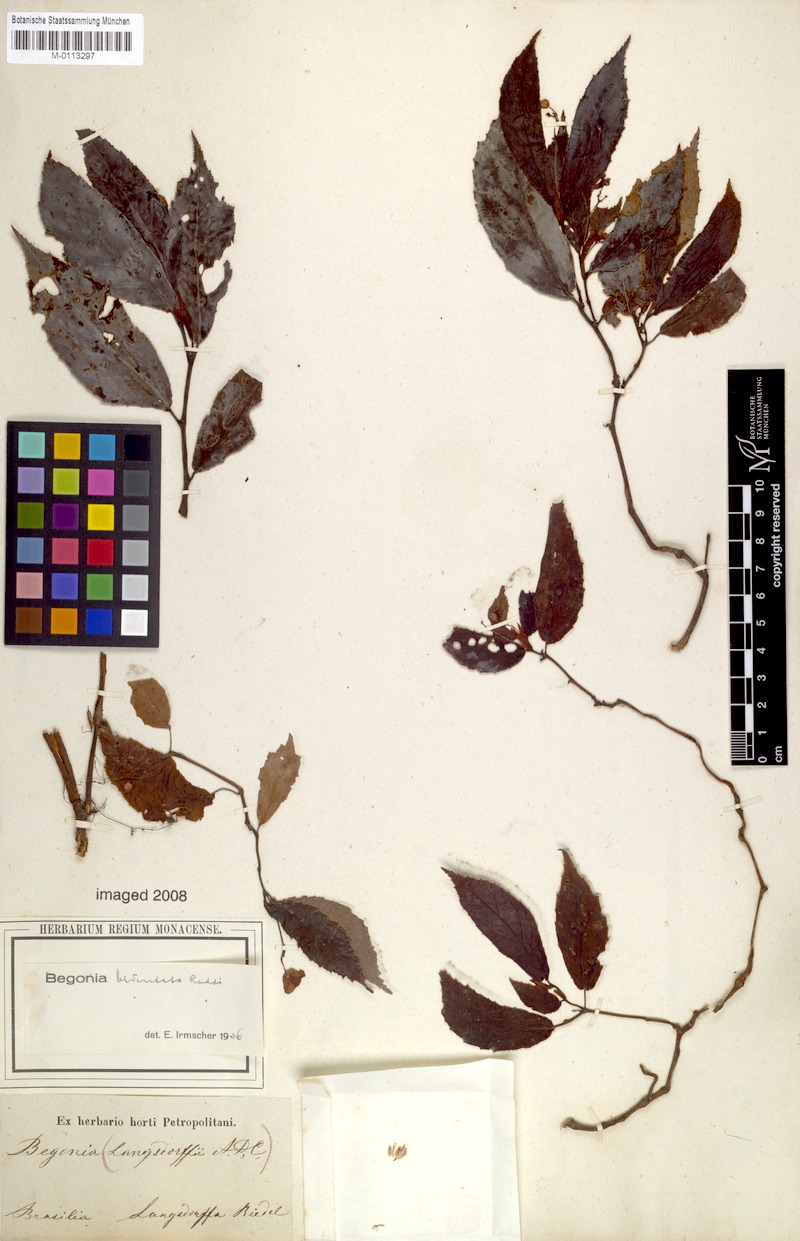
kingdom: Plantae
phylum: Tracheophyta
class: Magnoliopsida
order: Cucurbitales
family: Begoniaceae
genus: Begonia
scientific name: Begonia bidentata
